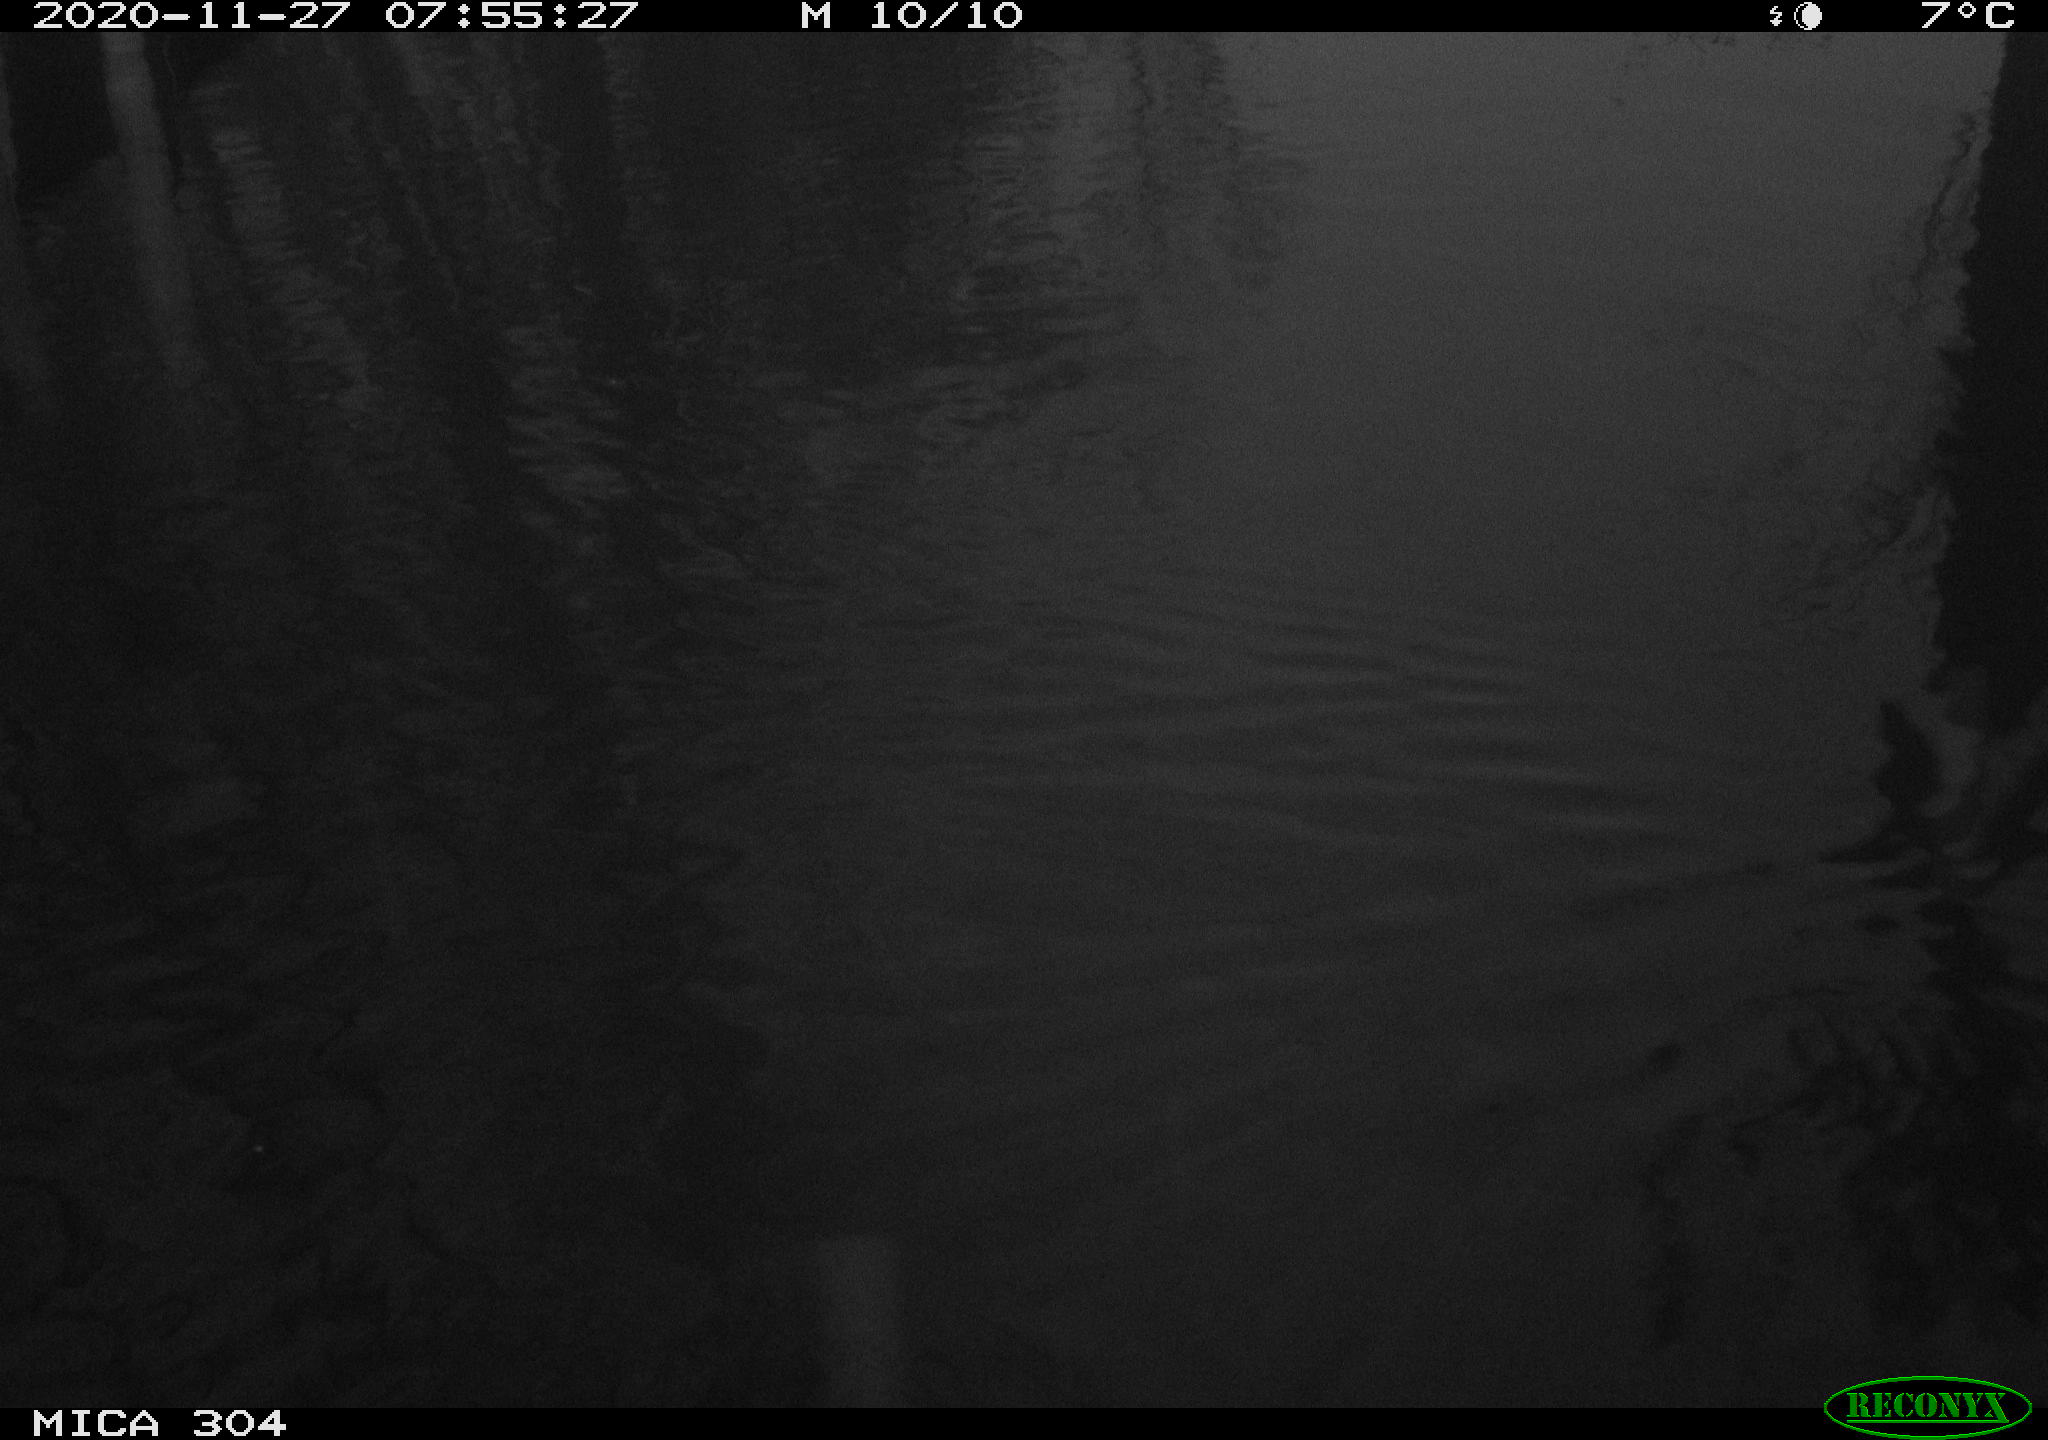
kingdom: Animalia
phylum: Chordata
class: Aves
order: Anseriformes
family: Anatidae
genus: Anas
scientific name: Anas platyrhynchos
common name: Mallard
